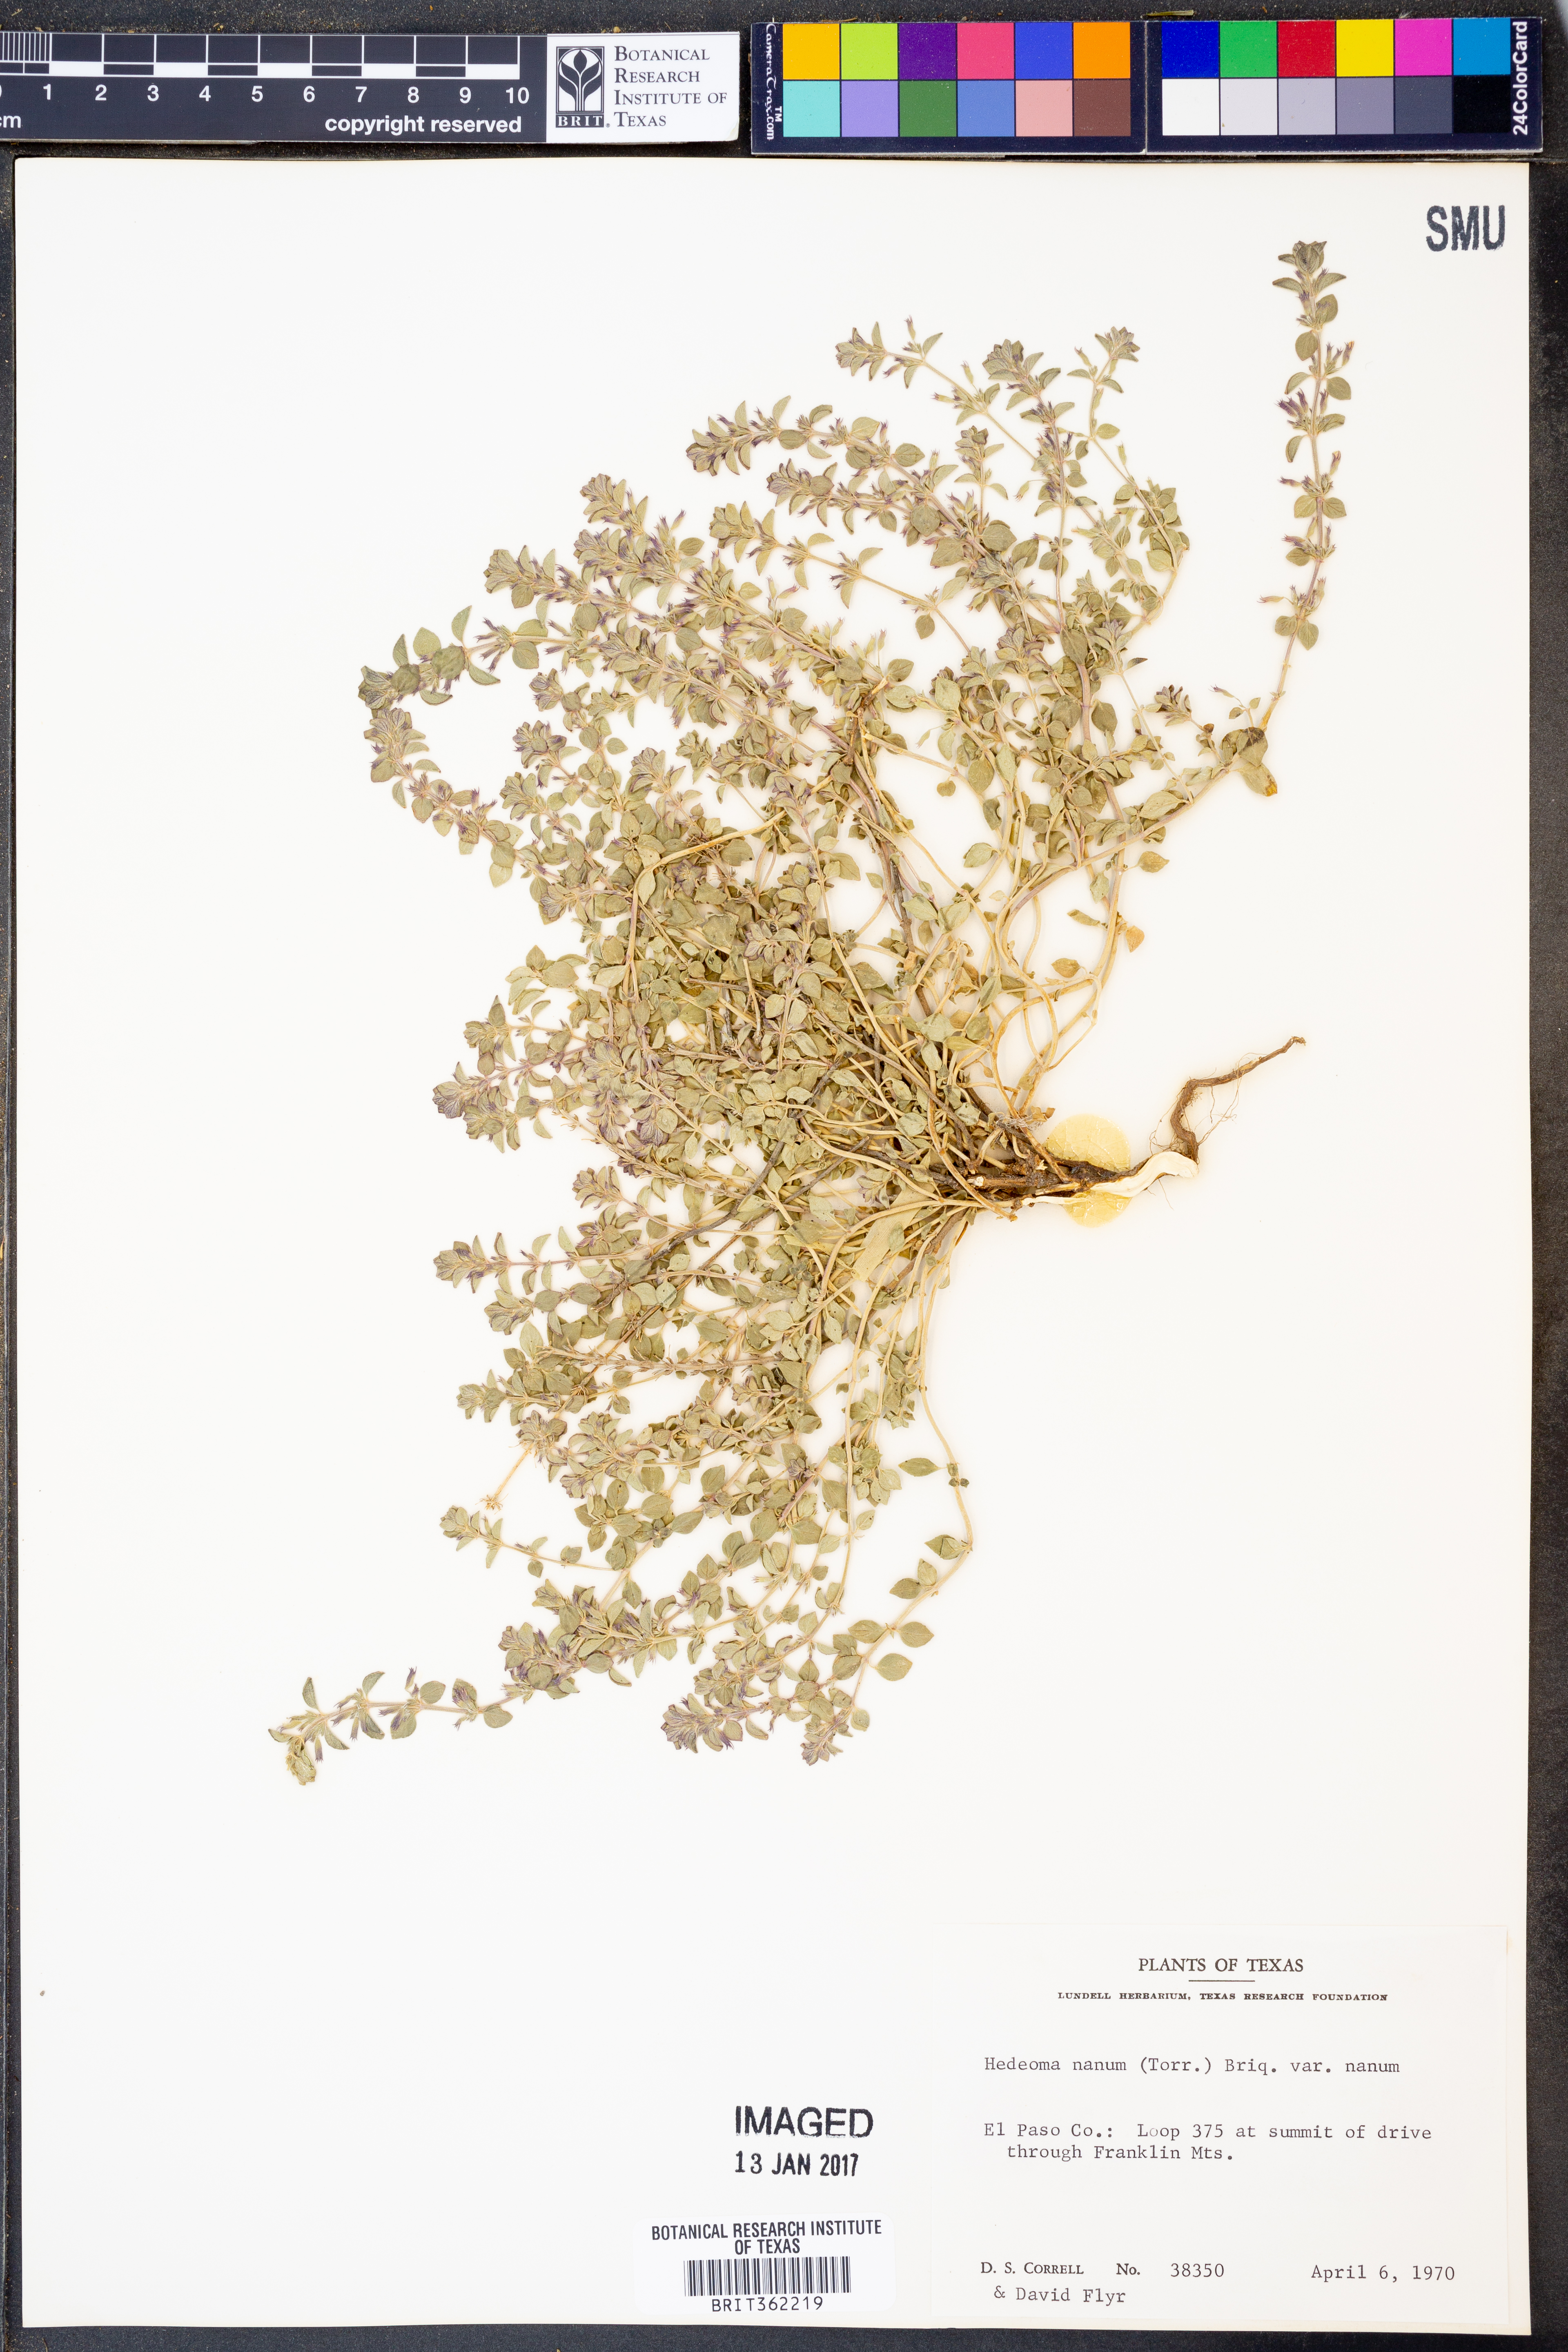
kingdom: Plantae
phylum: Tracheophyta
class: Magnoliopsida
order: Lamiales
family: Lamiaceae
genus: Hedeoma
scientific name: Hedeoma nana
